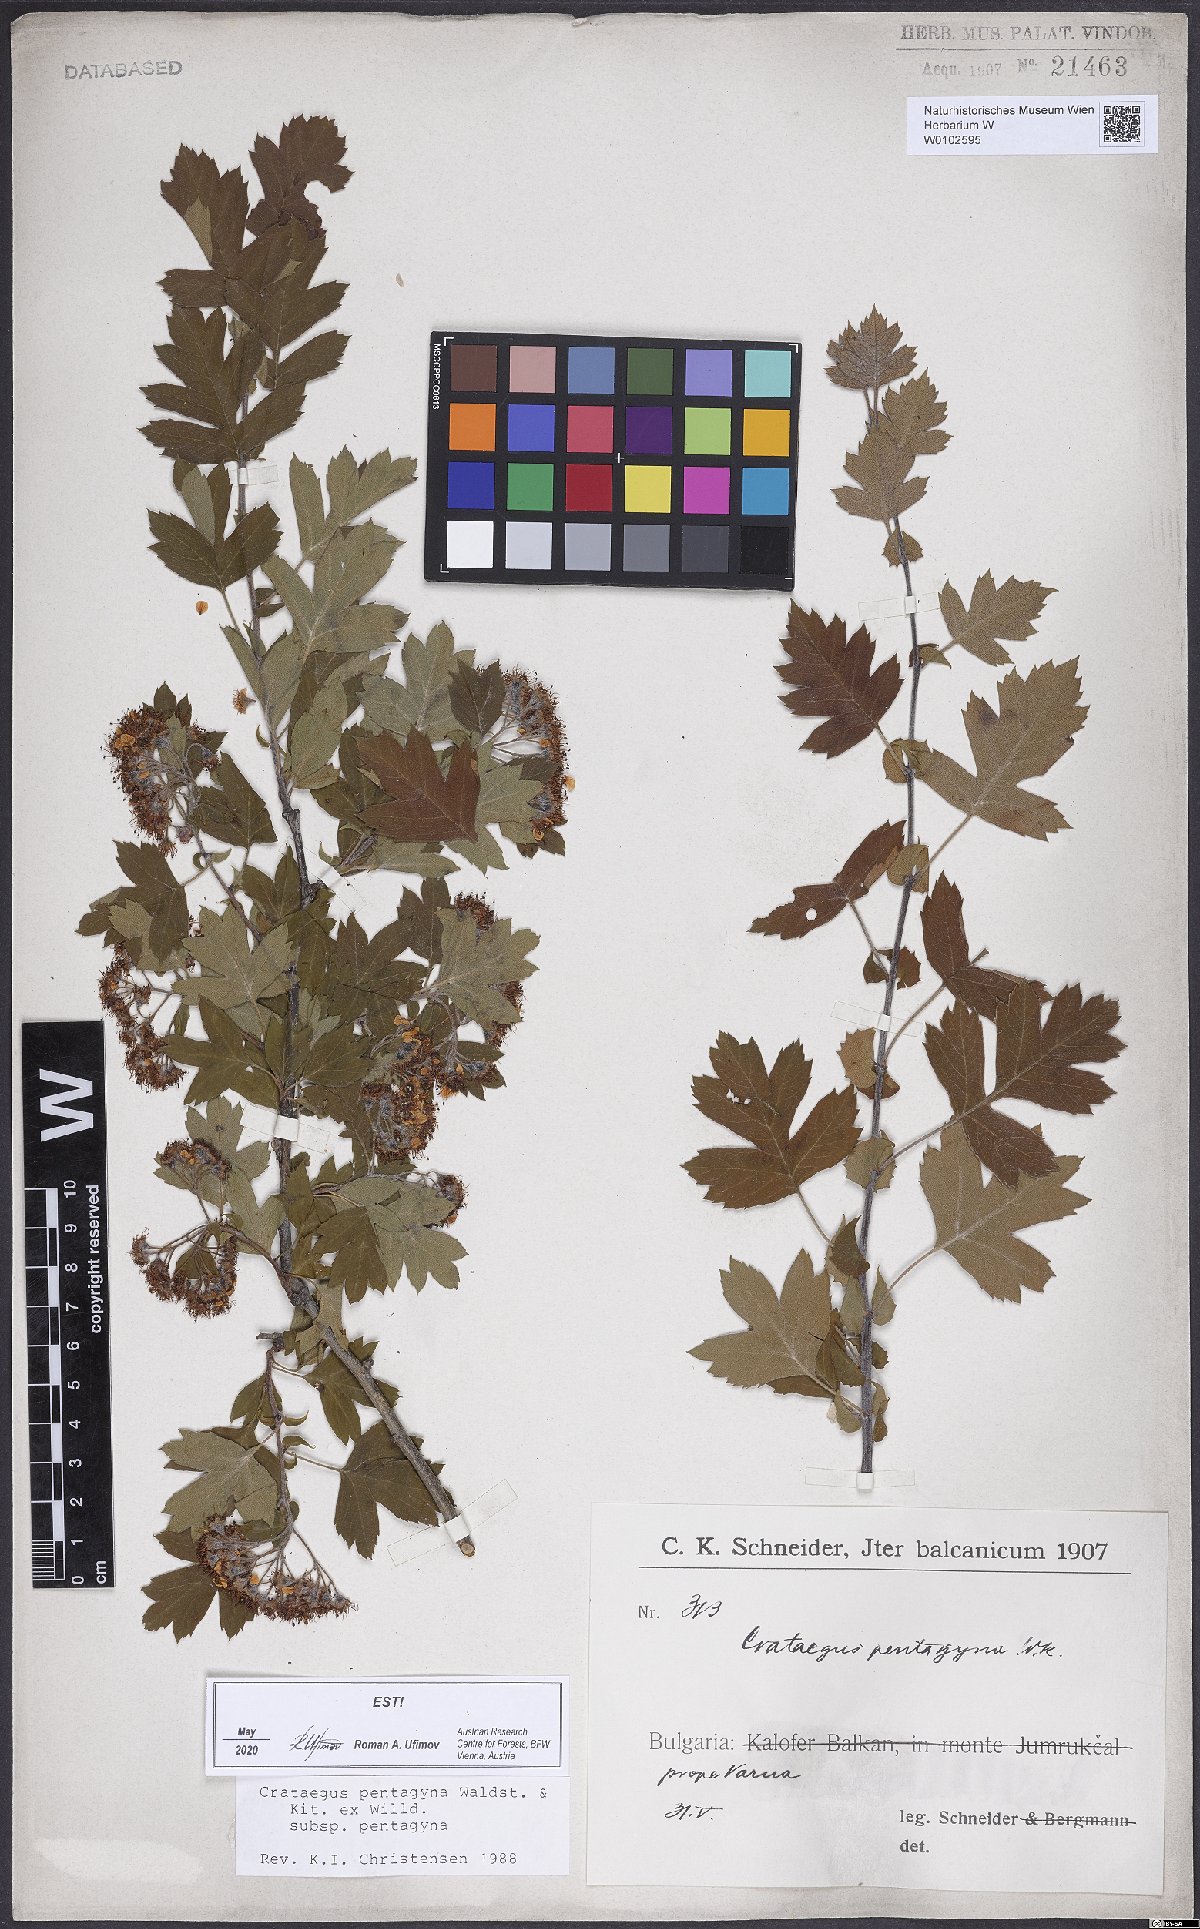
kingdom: Plantae
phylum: Tracheophyta
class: Magnoliopsida
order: Rosales
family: Rosaceae
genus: Crataegus
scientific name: Crataegus pentagyna
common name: Small-flowered black hawthorn
